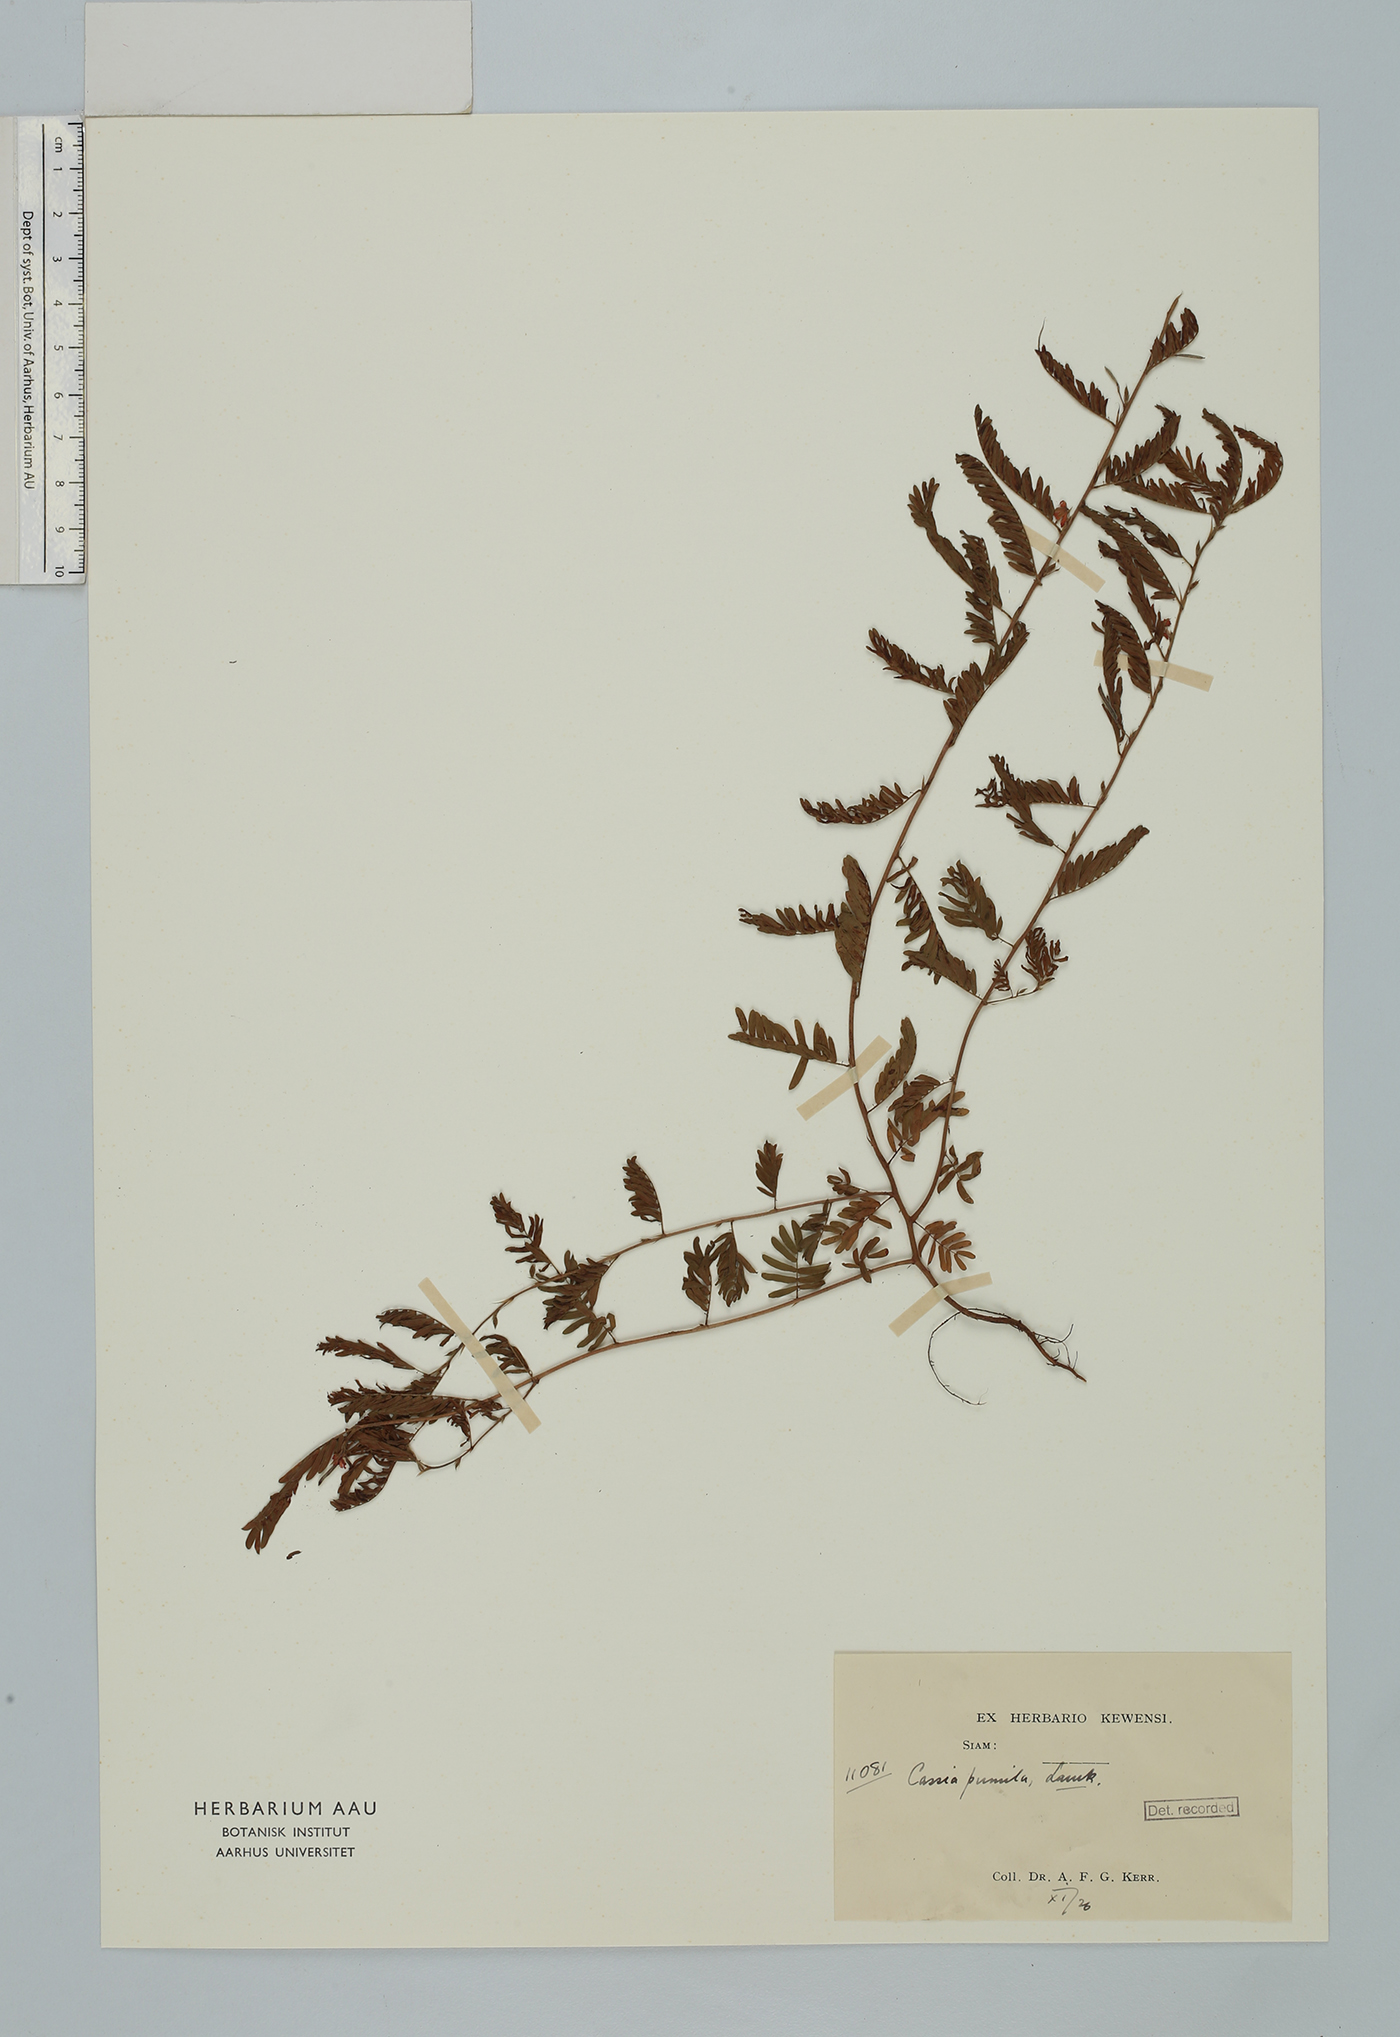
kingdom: Plantae
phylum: Tracheophyta
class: Magnoliopsida
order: Fabales
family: Fabaceae
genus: Chamaecrista
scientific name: Chamaecrista pumila
